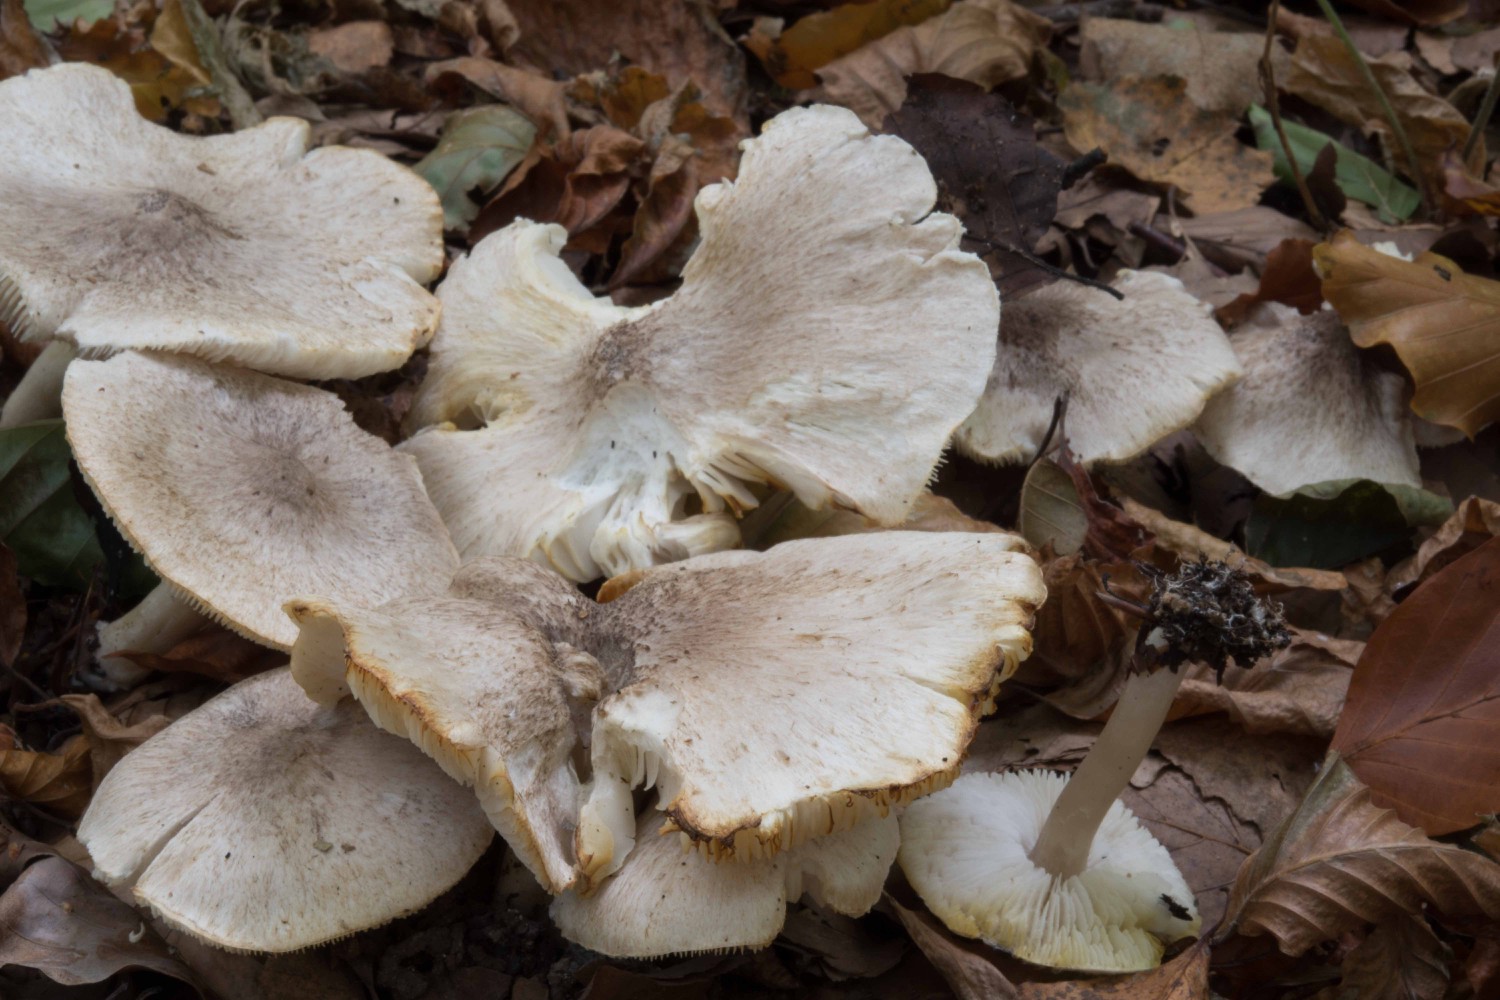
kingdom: Fungi
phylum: Basidiomycota
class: Agaricomycetes
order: Agaricales
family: Tricholomataceae
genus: Tricholoma
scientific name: Tricholoma argyraceum
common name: spids ridderhat
